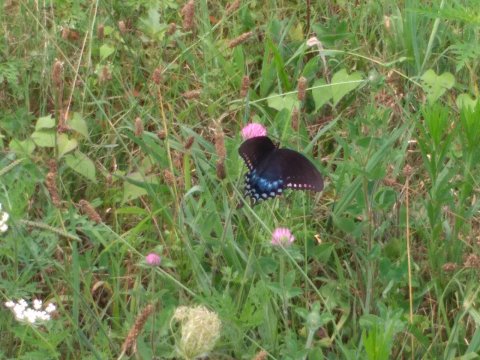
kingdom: Animalia
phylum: Arthropoda
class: Insecta
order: Lepidoptera
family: Papilionidae
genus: Pterourus
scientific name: Pterourus troilus
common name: Spicebush Swallowtail
